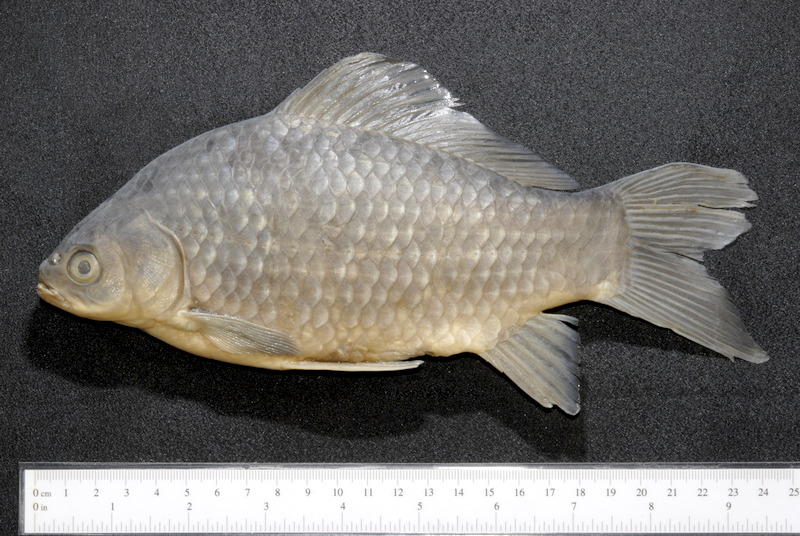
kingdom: Animalia
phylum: Chordata
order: Cypriniformes
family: Cyprinidae
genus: Carassius
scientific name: Carassius gibelio
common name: Prussian carp
